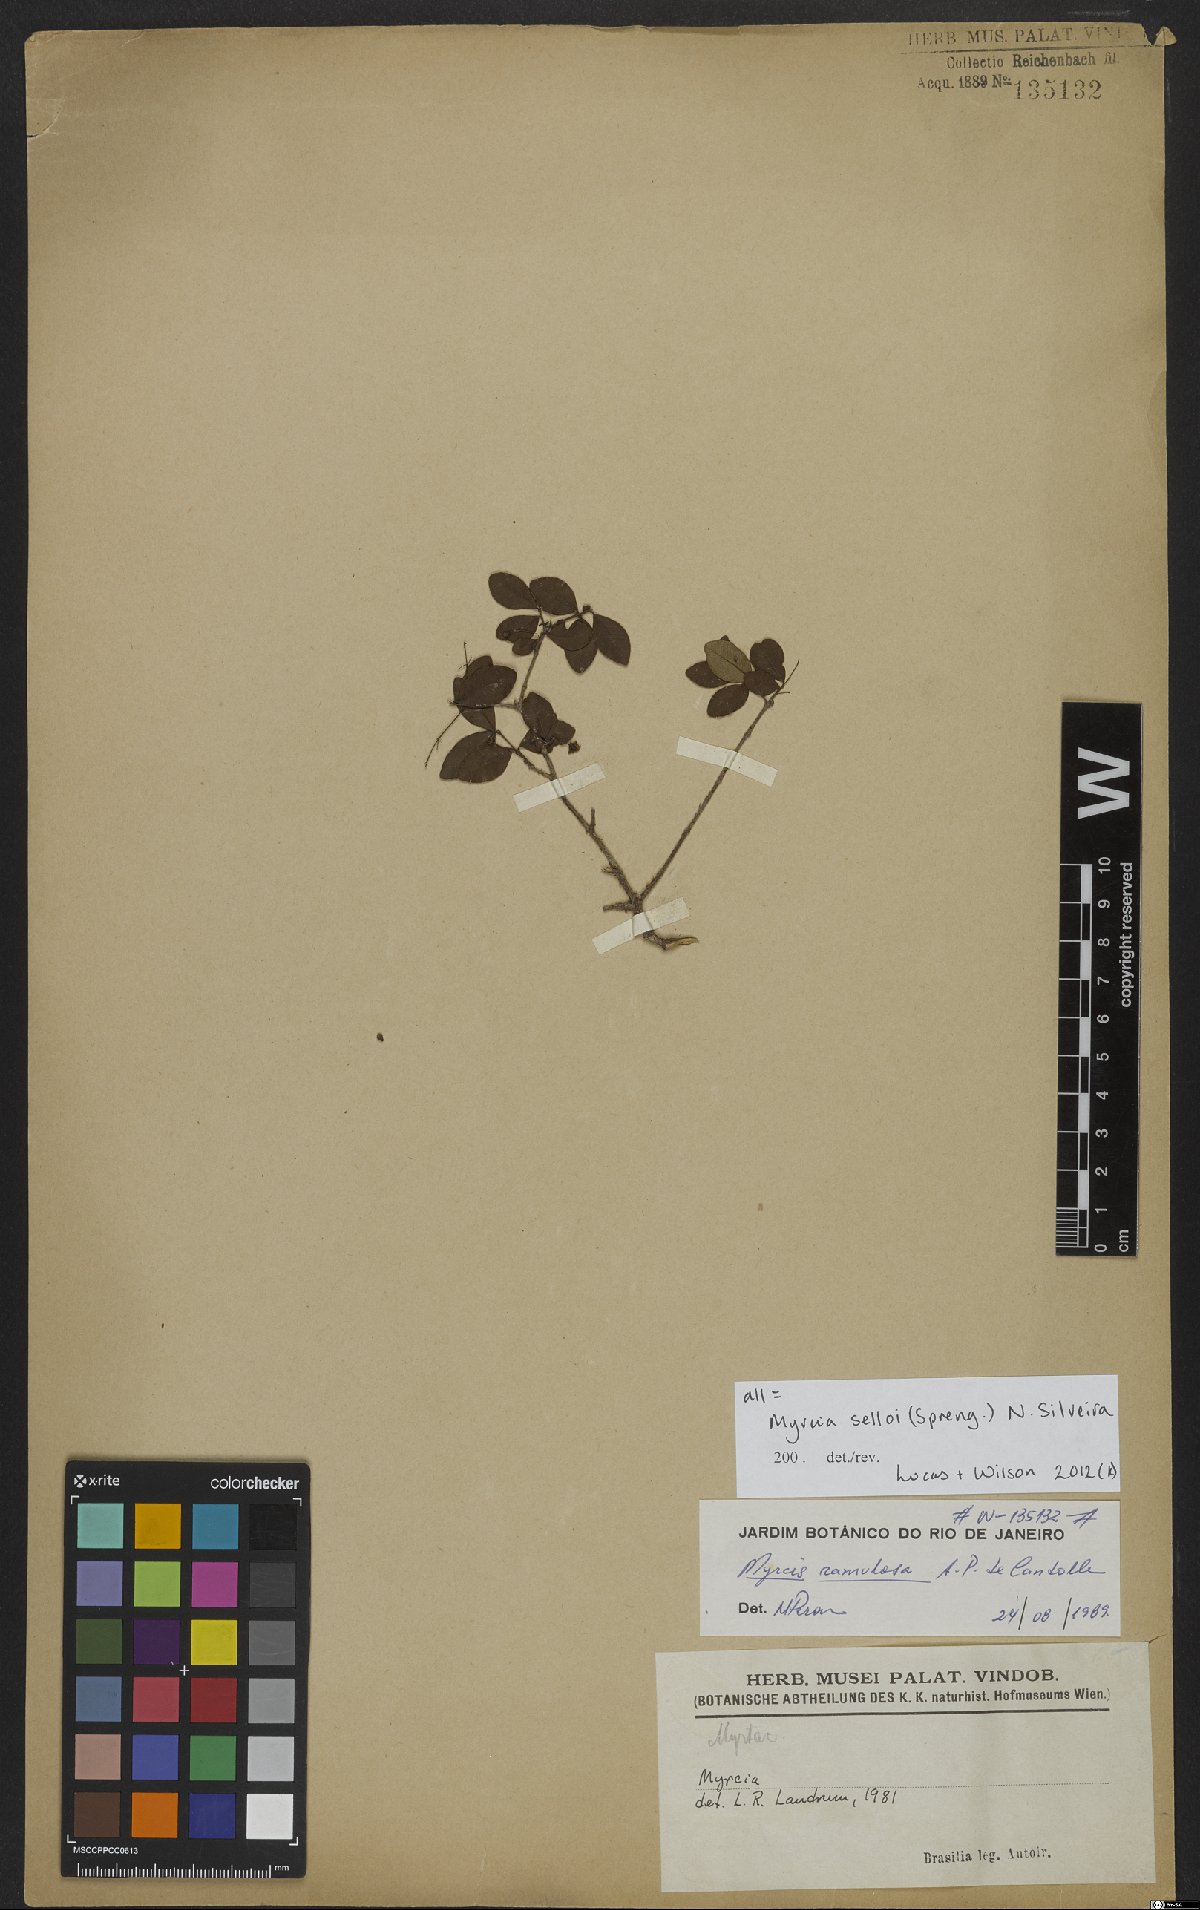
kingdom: Plantae
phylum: Tracheophyta
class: Magnoliopsida
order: Myrtales
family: Myrtaceae
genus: Myrcia
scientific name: Myrcia selloi
